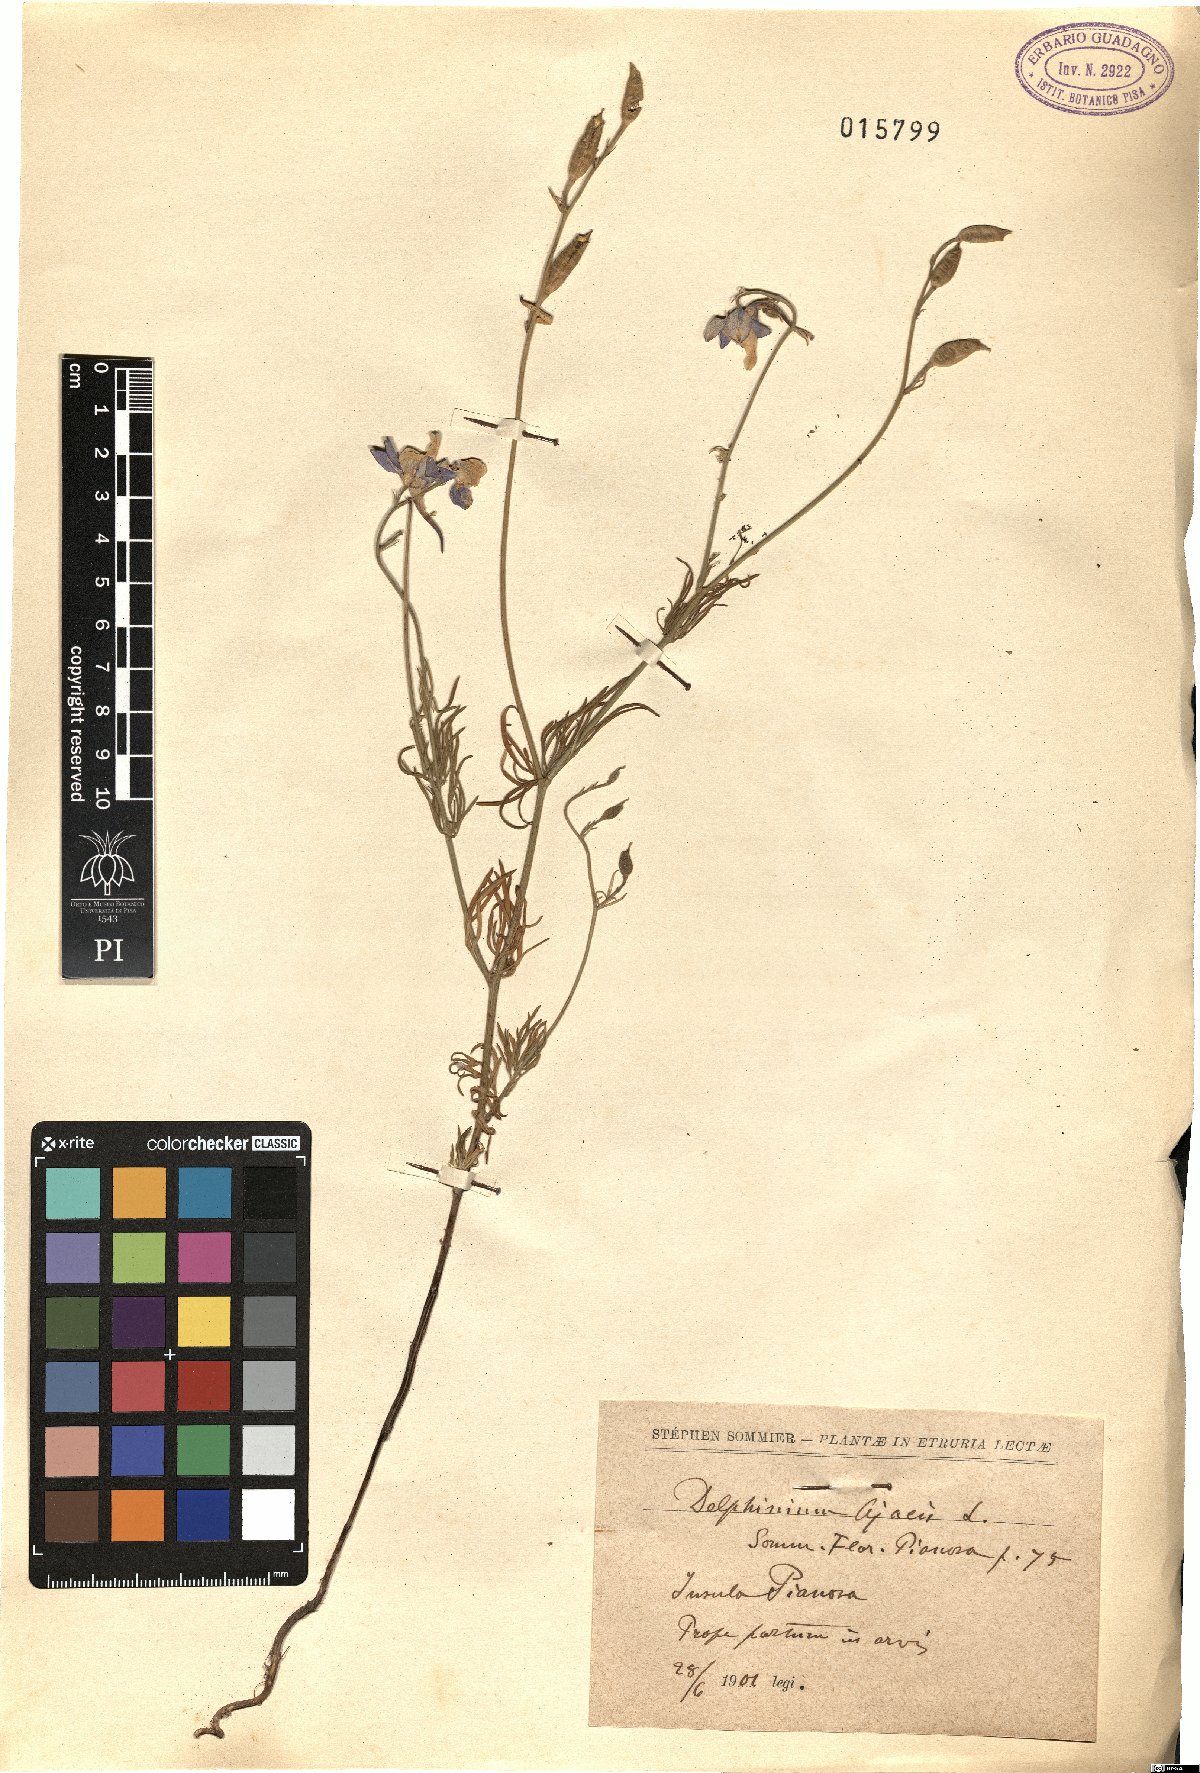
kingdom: Plantae
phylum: Tracheophyta
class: Magnoliopsida
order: Ranunculales
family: Ranunculaceae
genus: Delphinium
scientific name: Delphinium ajacis
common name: Doubtful knight's-spur
